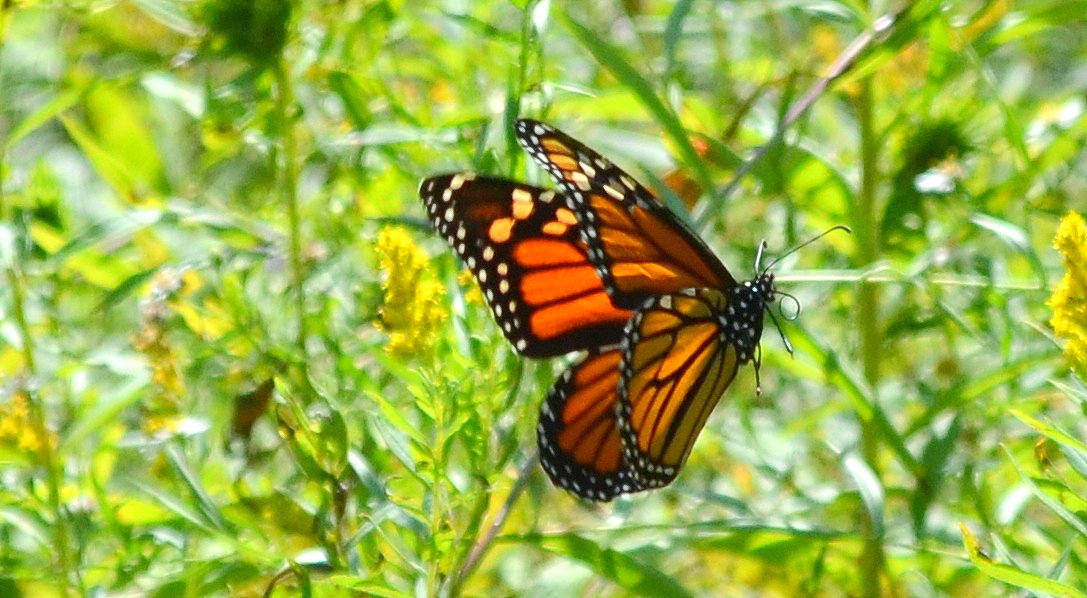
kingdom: Animalia
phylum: Arthropoda
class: Insecta
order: Lepidoptera
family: Nymphalidae
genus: Danaus
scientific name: Danaus plexippus
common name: Monarch
